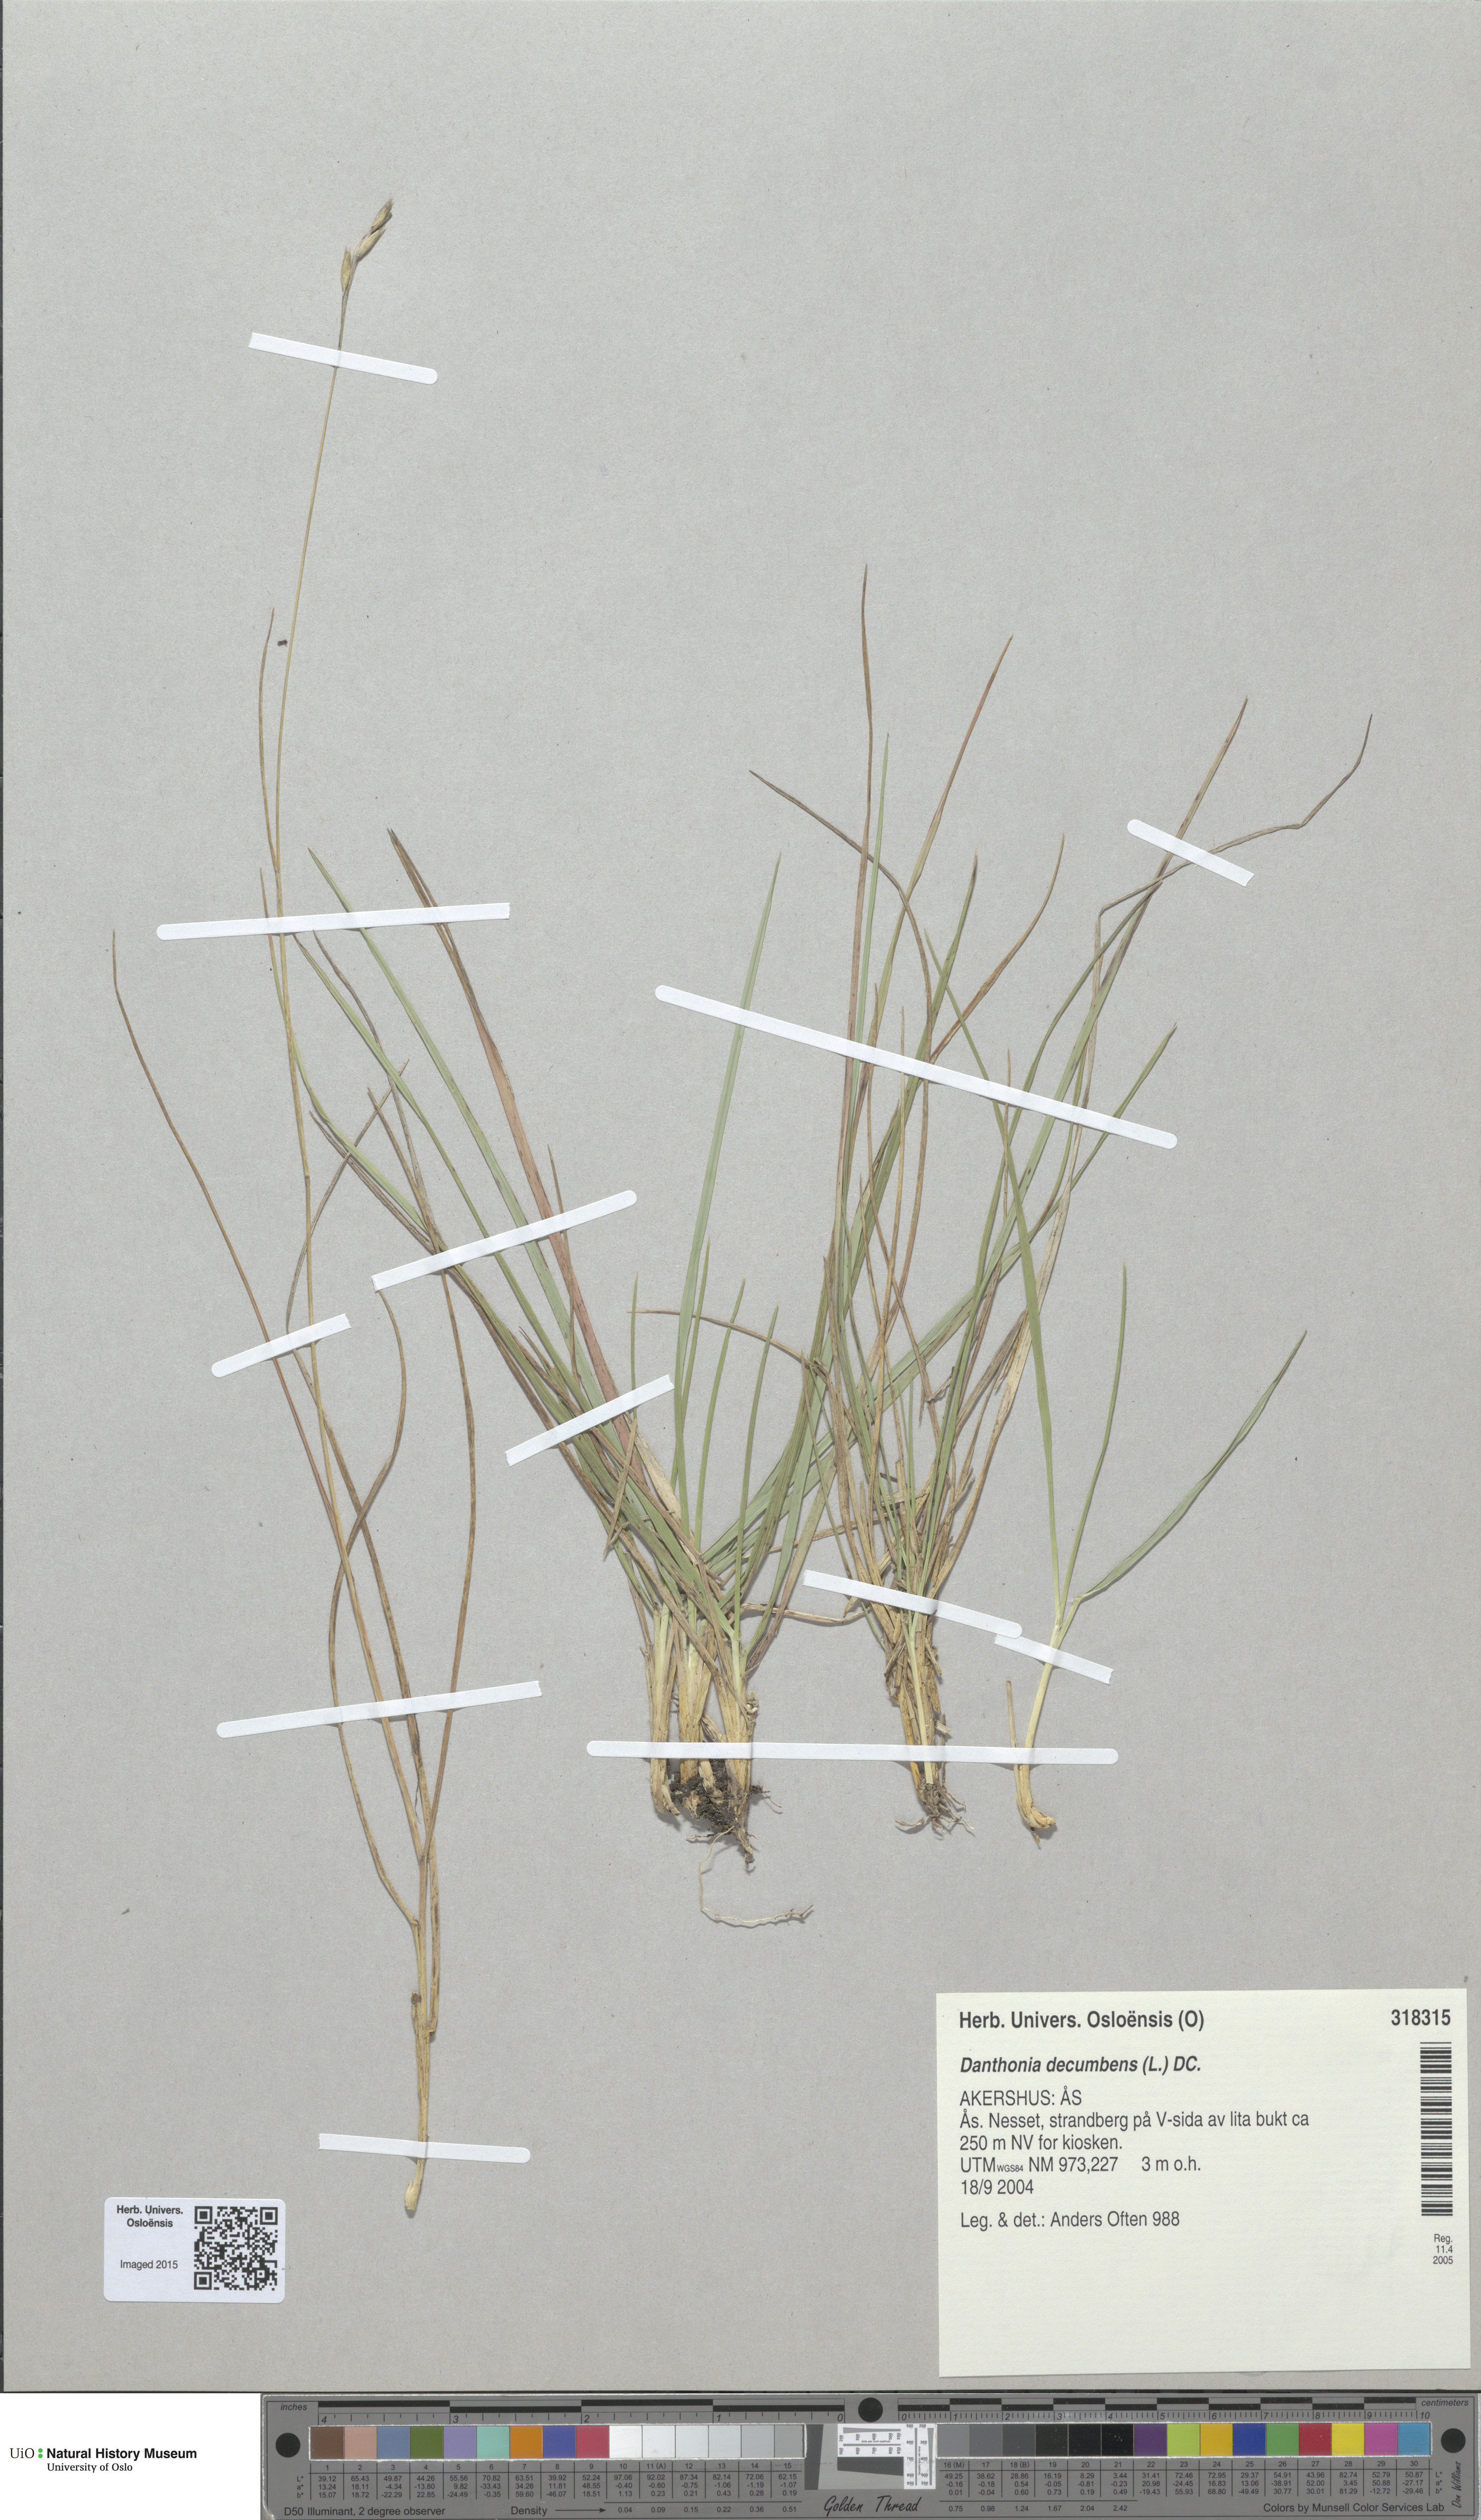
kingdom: Plantae
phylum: Tracheophyta
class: Liliopsida
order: Poales
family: Poaceae
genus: Danthonia
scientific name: Danthonia decumbens
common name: Common heathgrass
